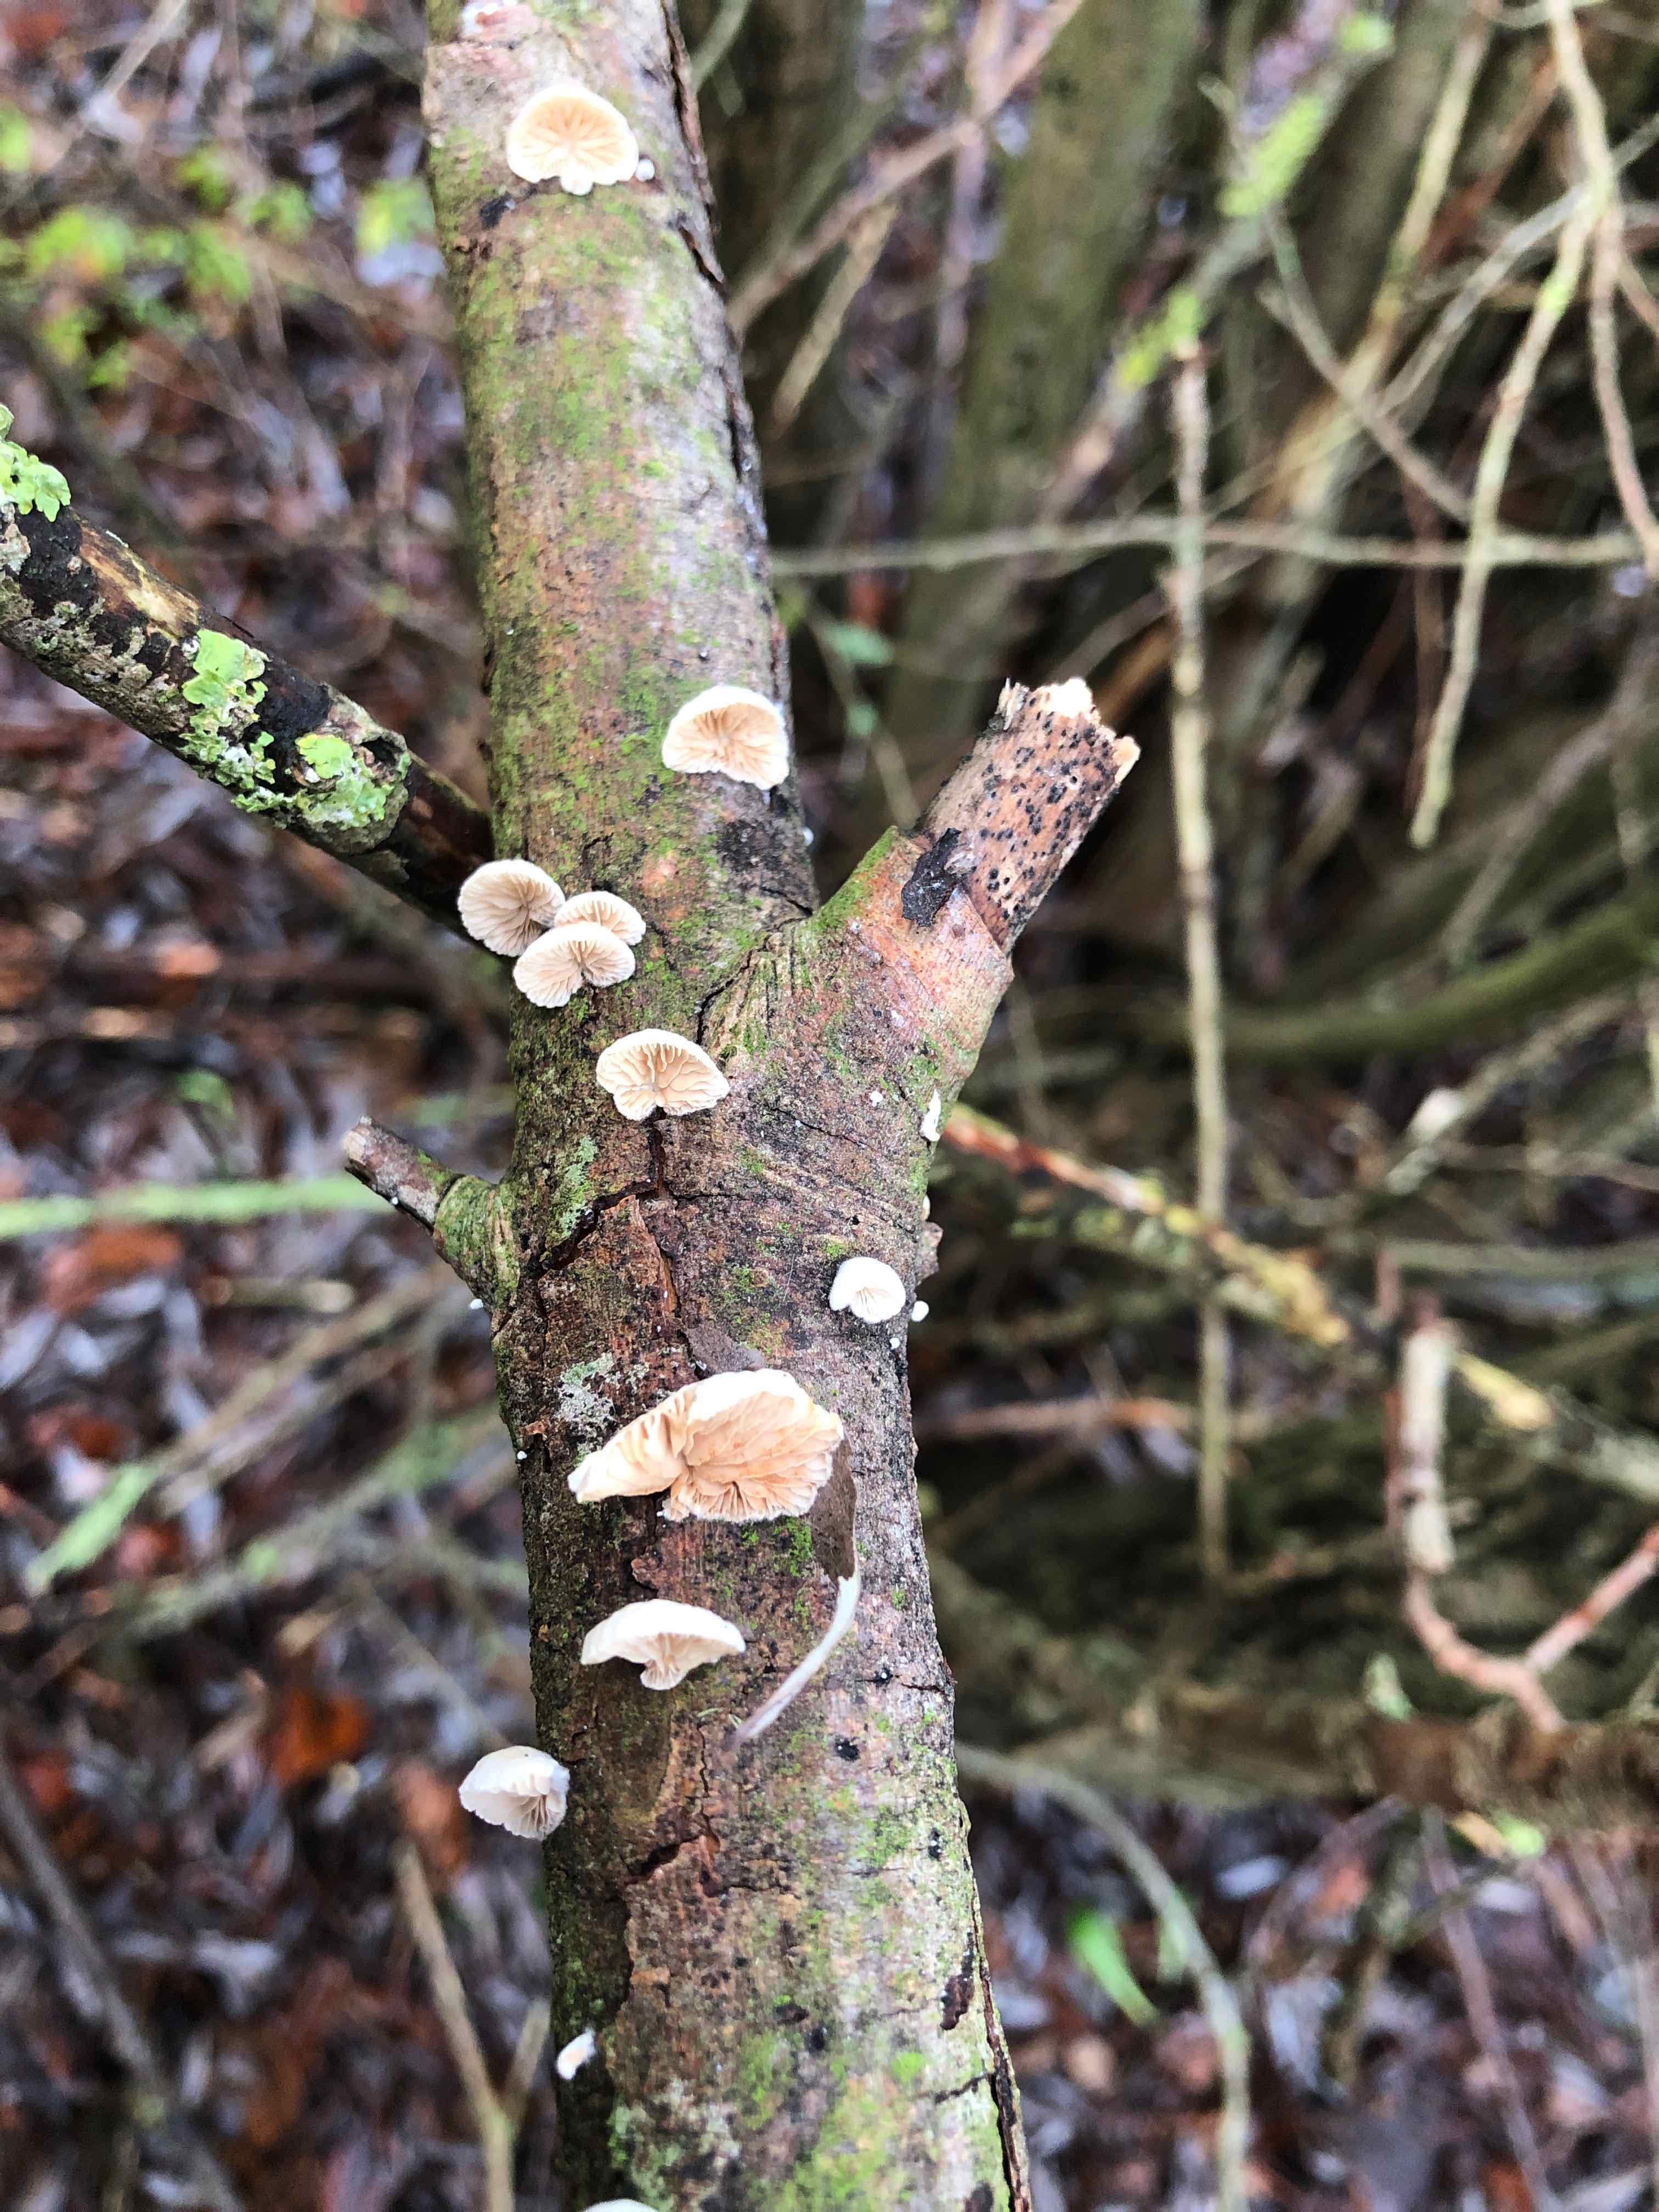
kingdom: Fungi
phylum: Basidiomycota
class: Agaricomycetes
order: Agaricales
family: Crepidotaceae
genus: Crepidotus
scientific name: Crepidotus cesatii
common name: almindelig muslingesvamp
